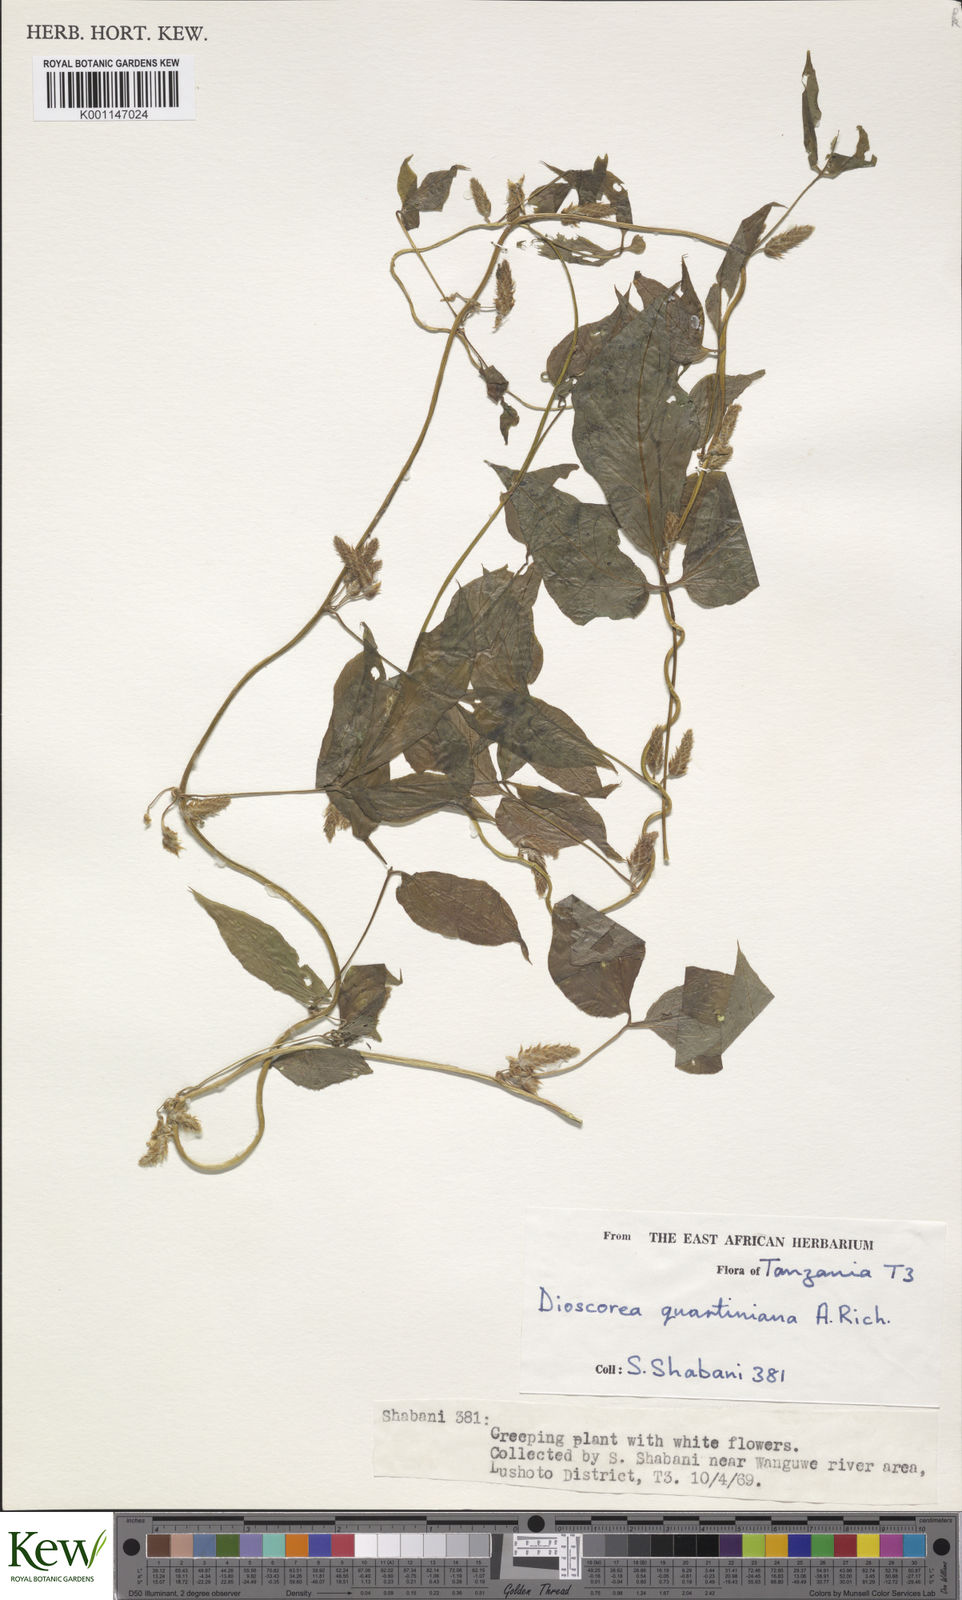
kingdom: Plantae
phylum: Tracheophyta
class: Liliopsida
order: Dioscoreales
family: Dioscoreaceae
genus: Dioscorea
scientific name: Dioscorea quartiniana
